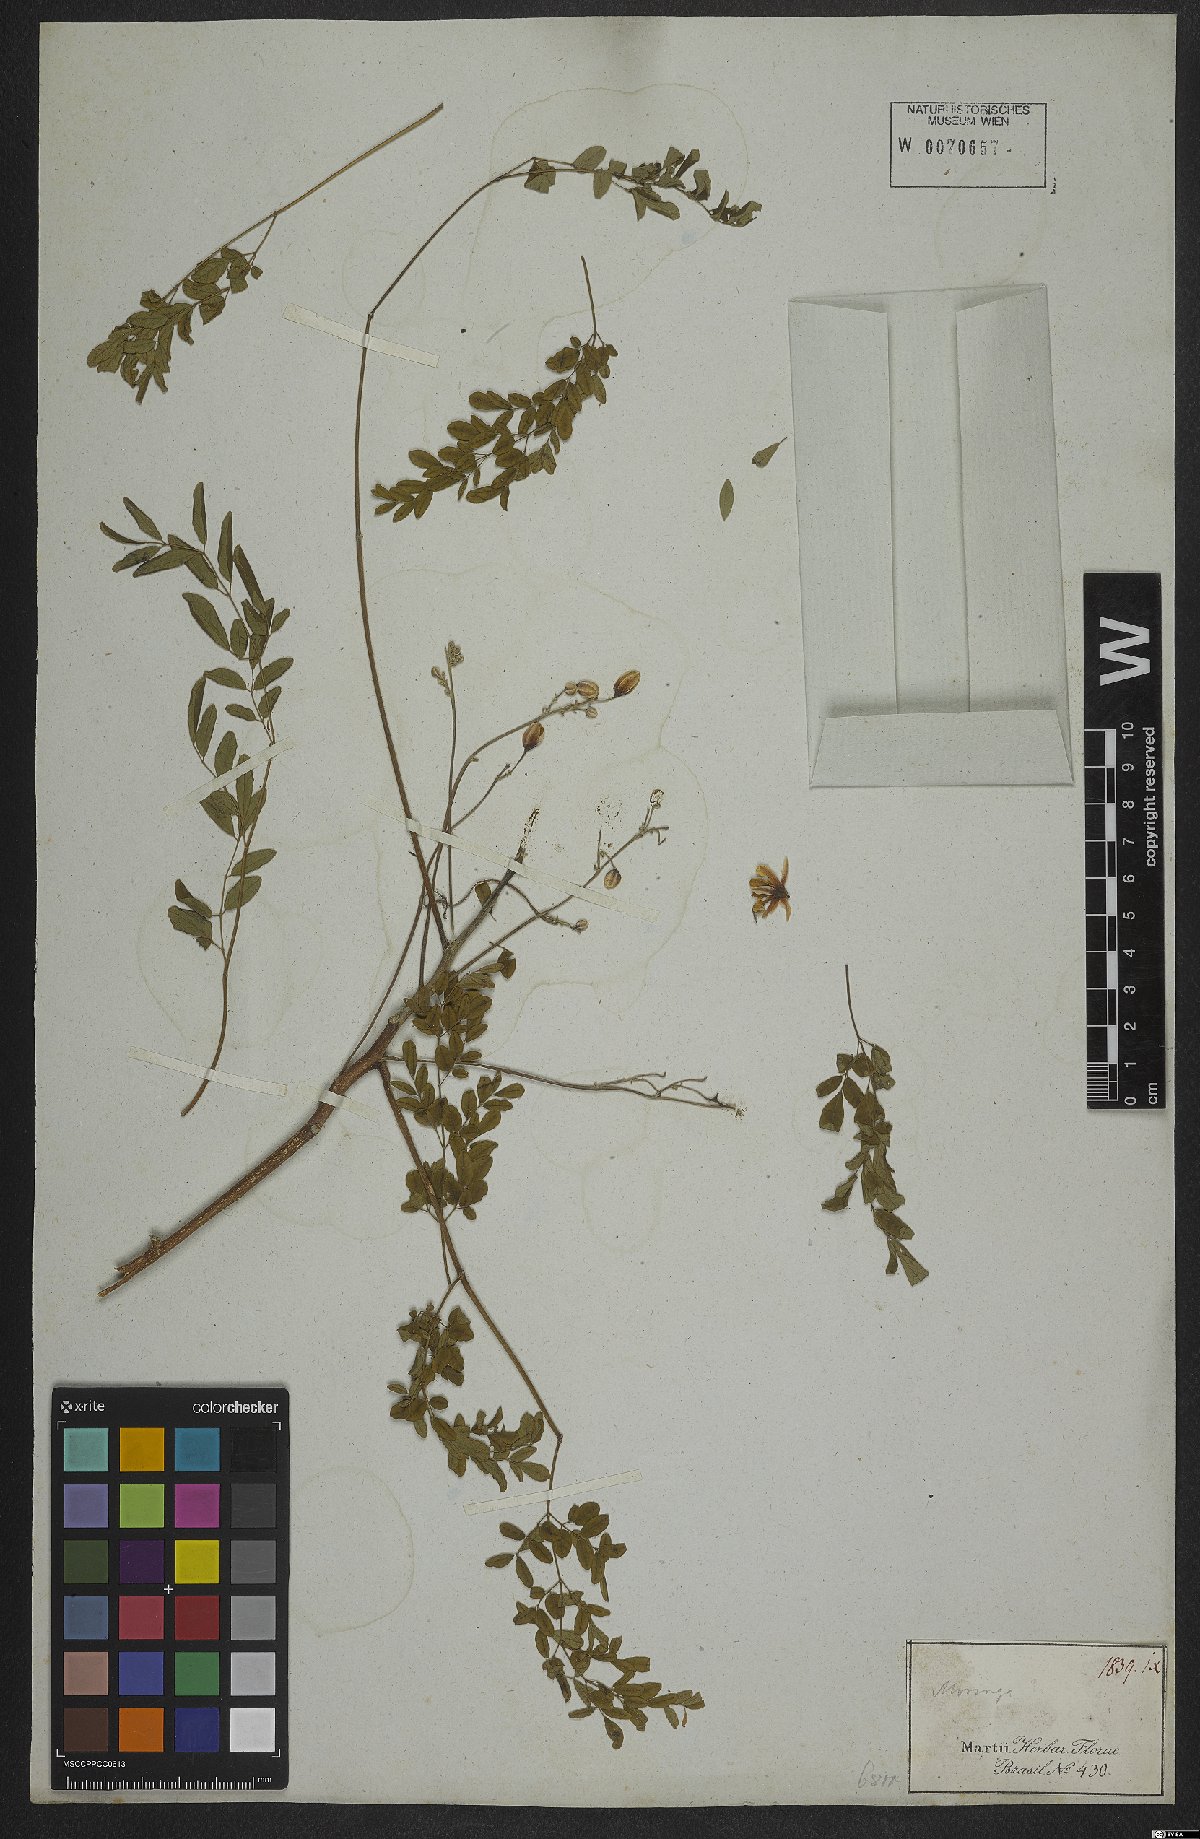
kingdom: Plantae
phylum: Tracheophyta
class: Magnoliopsida
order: Brassicales
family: Moringaceae
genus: Moringa
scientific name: Moringa oleifera
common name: Horseradish-tree
